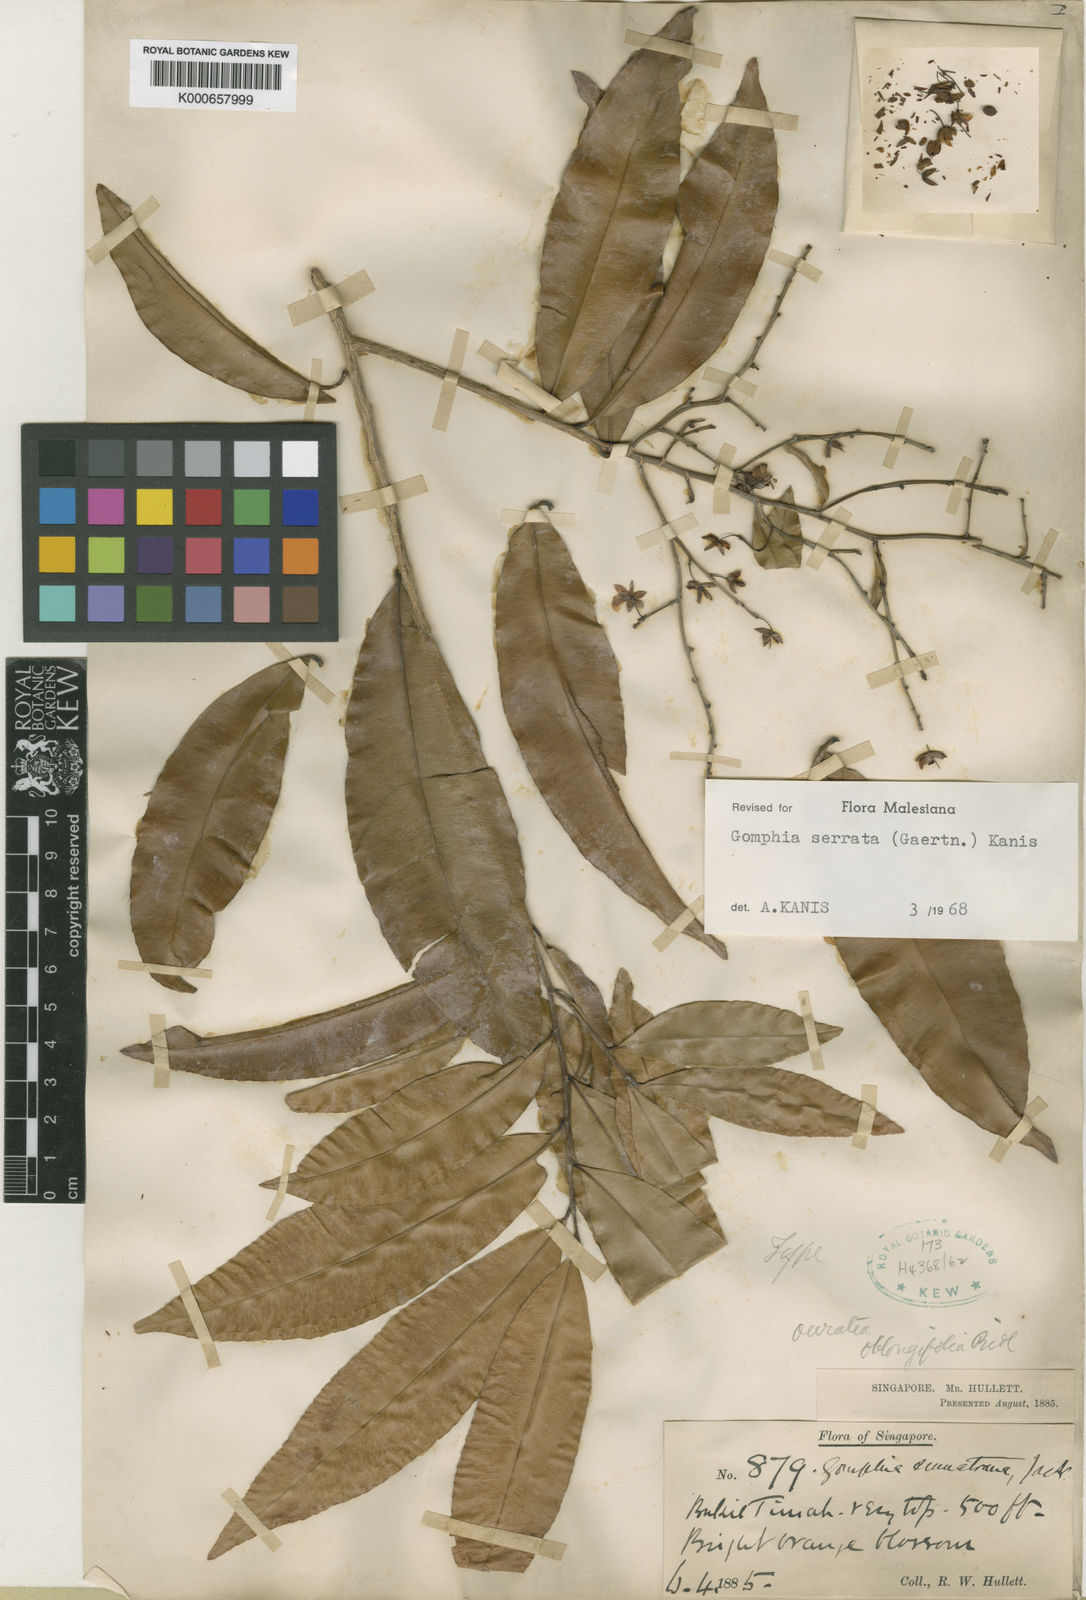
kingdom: Plantae
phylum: Tracheophyta
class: Magnoliopsida
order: Malpighiales
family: Ochnaceae
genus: Gomphia
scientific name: Gomphia serrata
